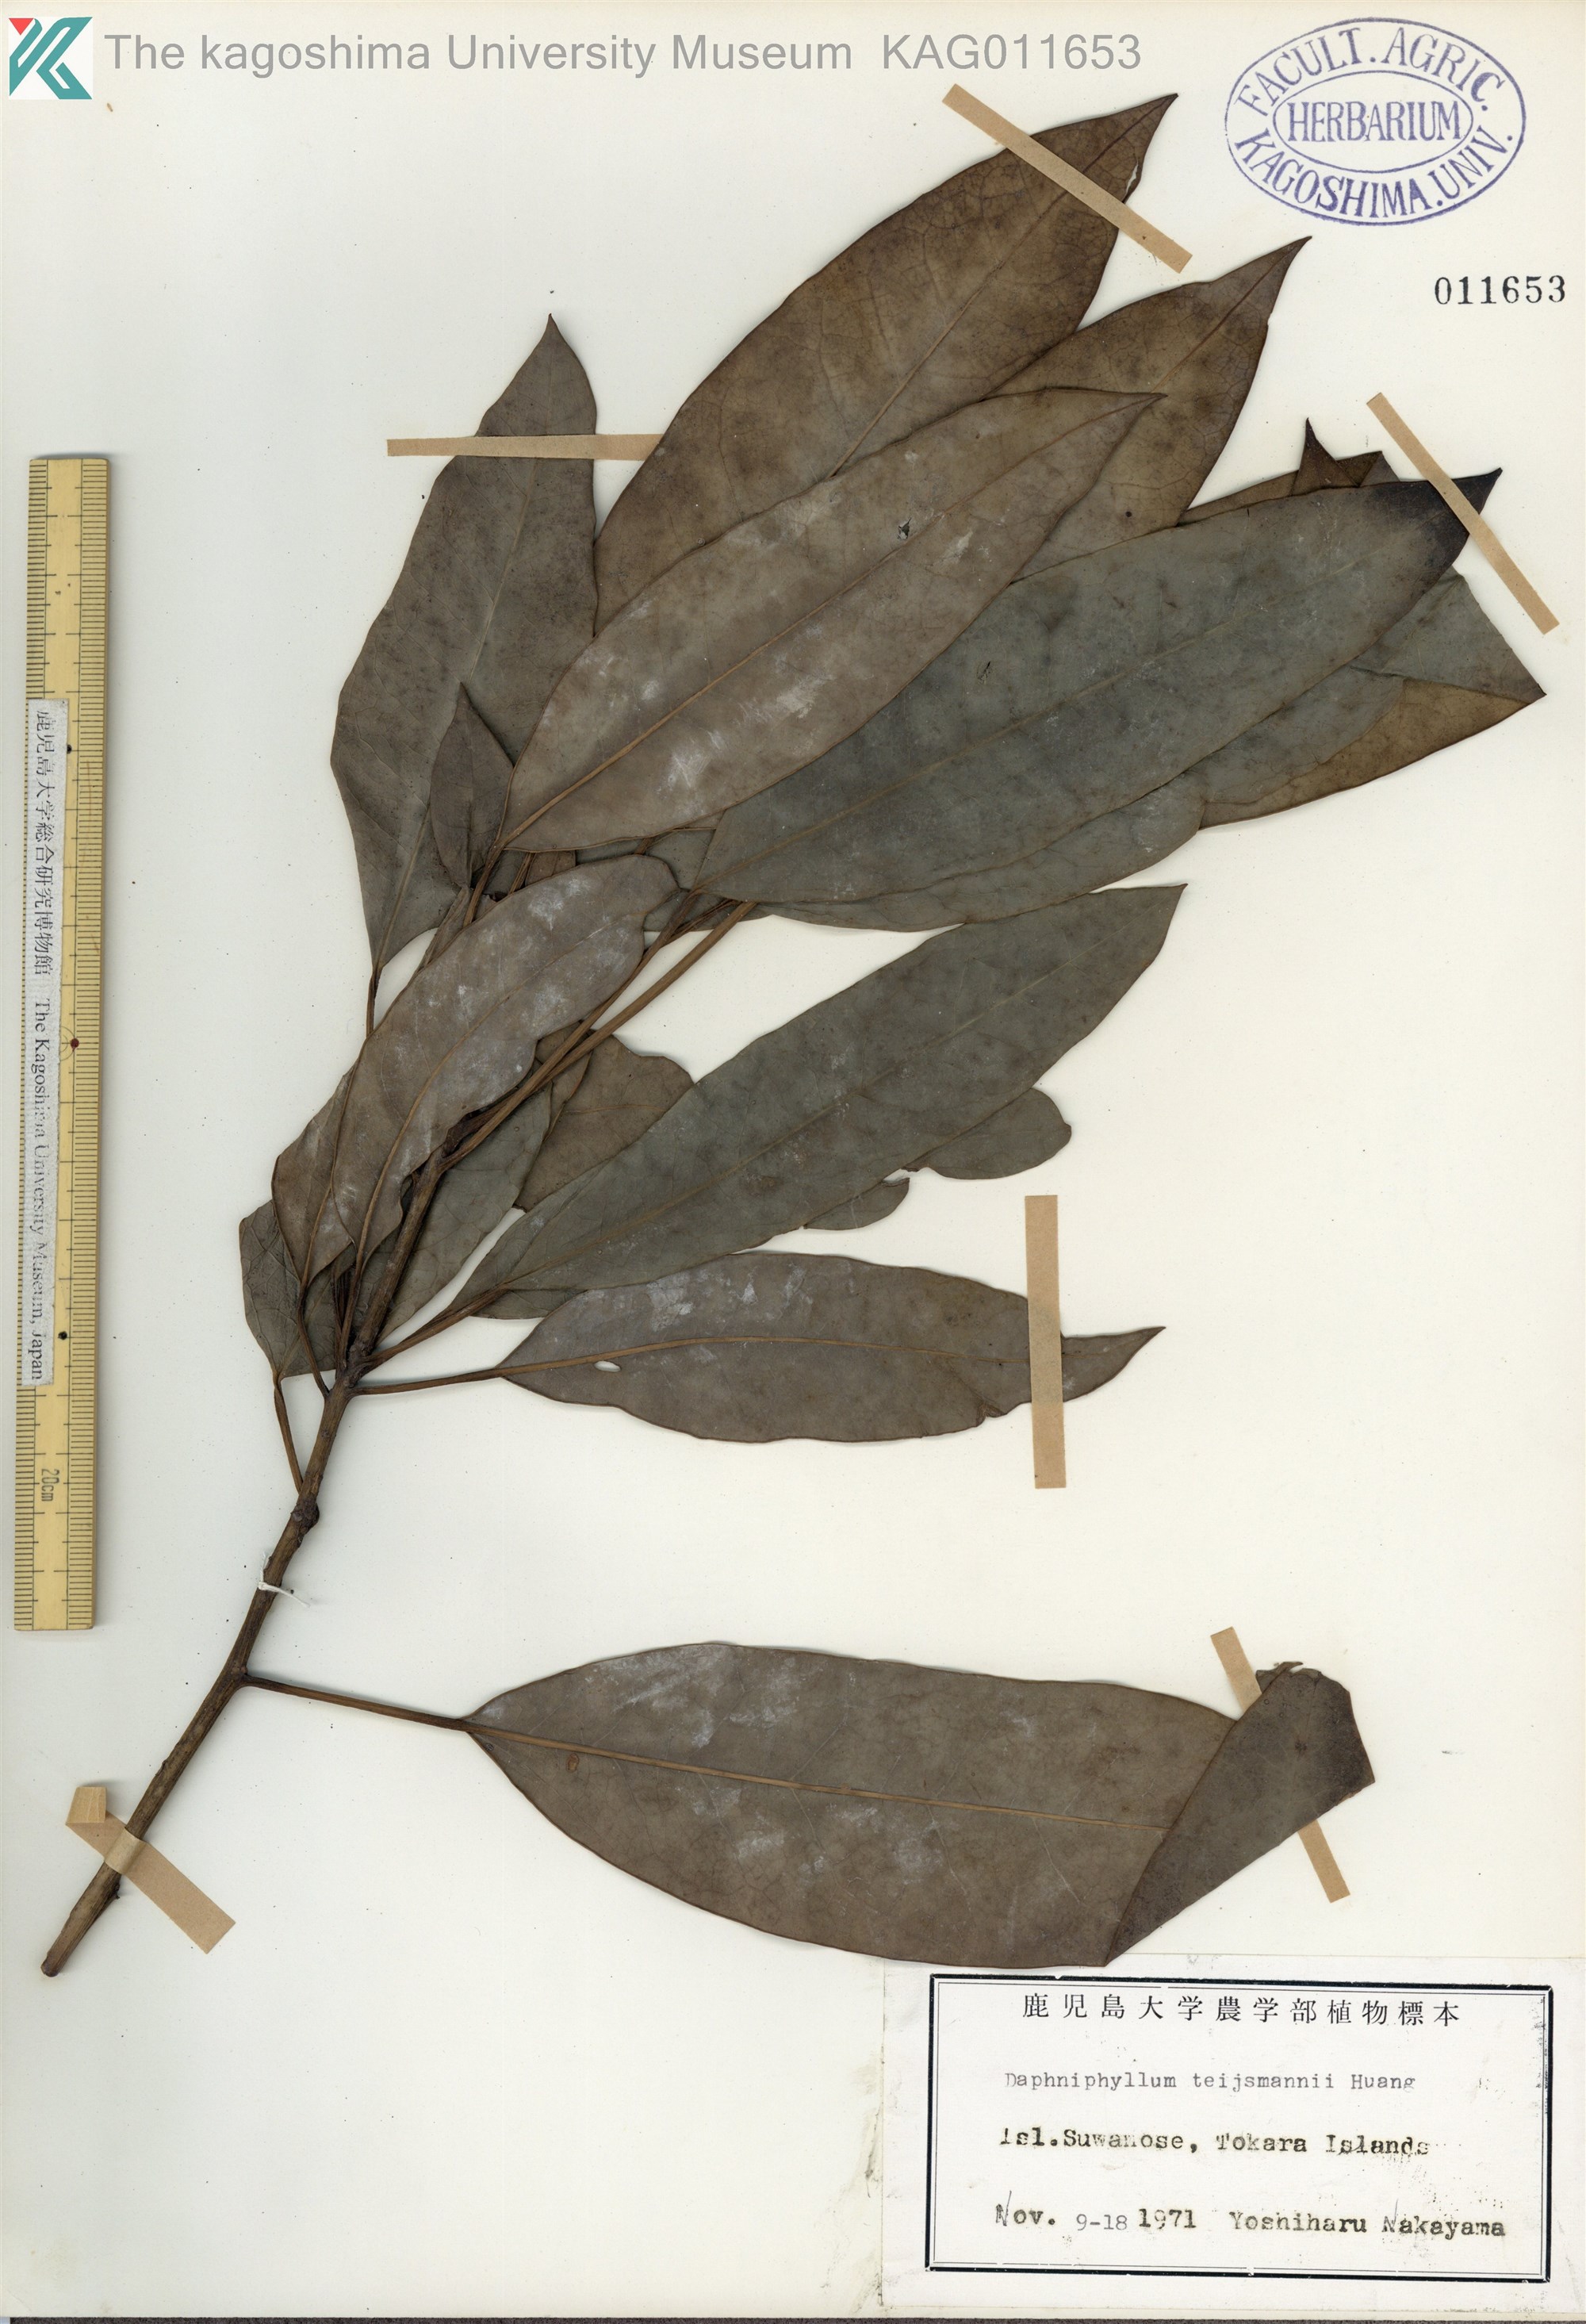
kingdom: Plantae
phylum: Tracheophyta
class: Magnoliopsida
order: Saxifragales
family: Daphniphyllaceae
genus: Daphniphyllum
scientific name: Daphniphyllum teijsmannii
